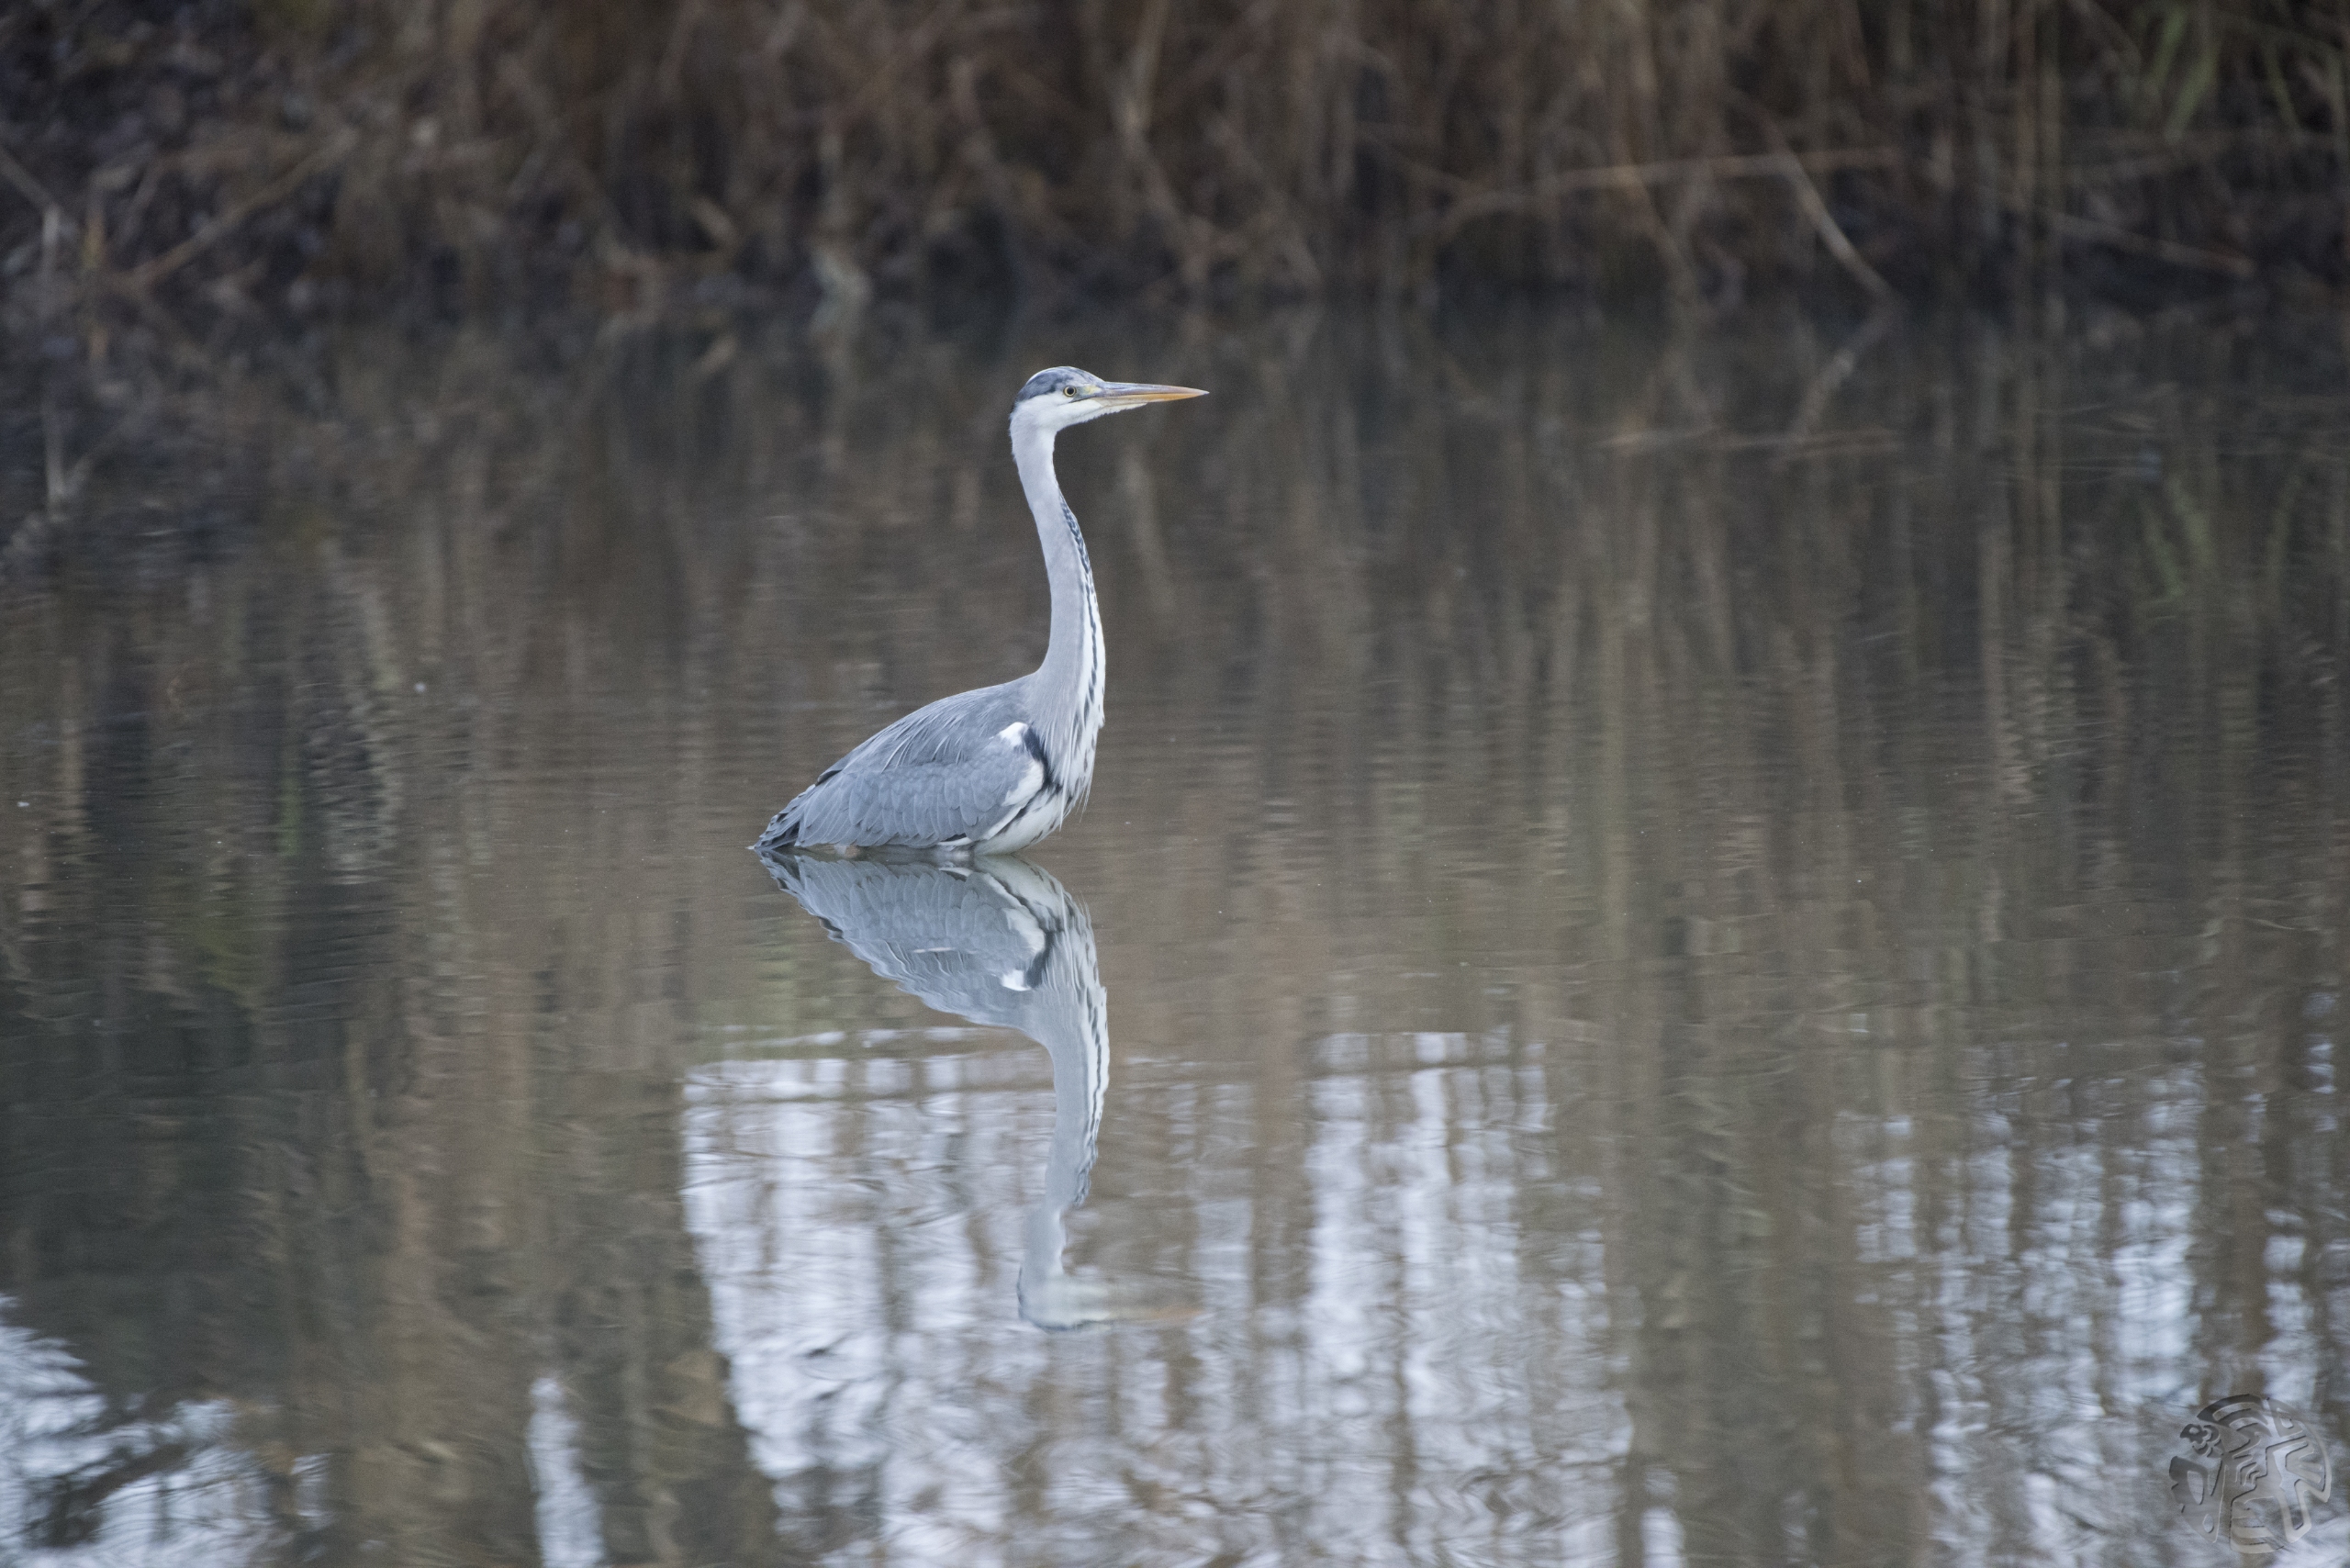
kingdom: Animalia
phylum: Chordata
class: Aves
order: Pelecaniformes
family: Ardeidae
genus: Ardea
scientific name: Ardea cinerea
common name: Fiskehejre
